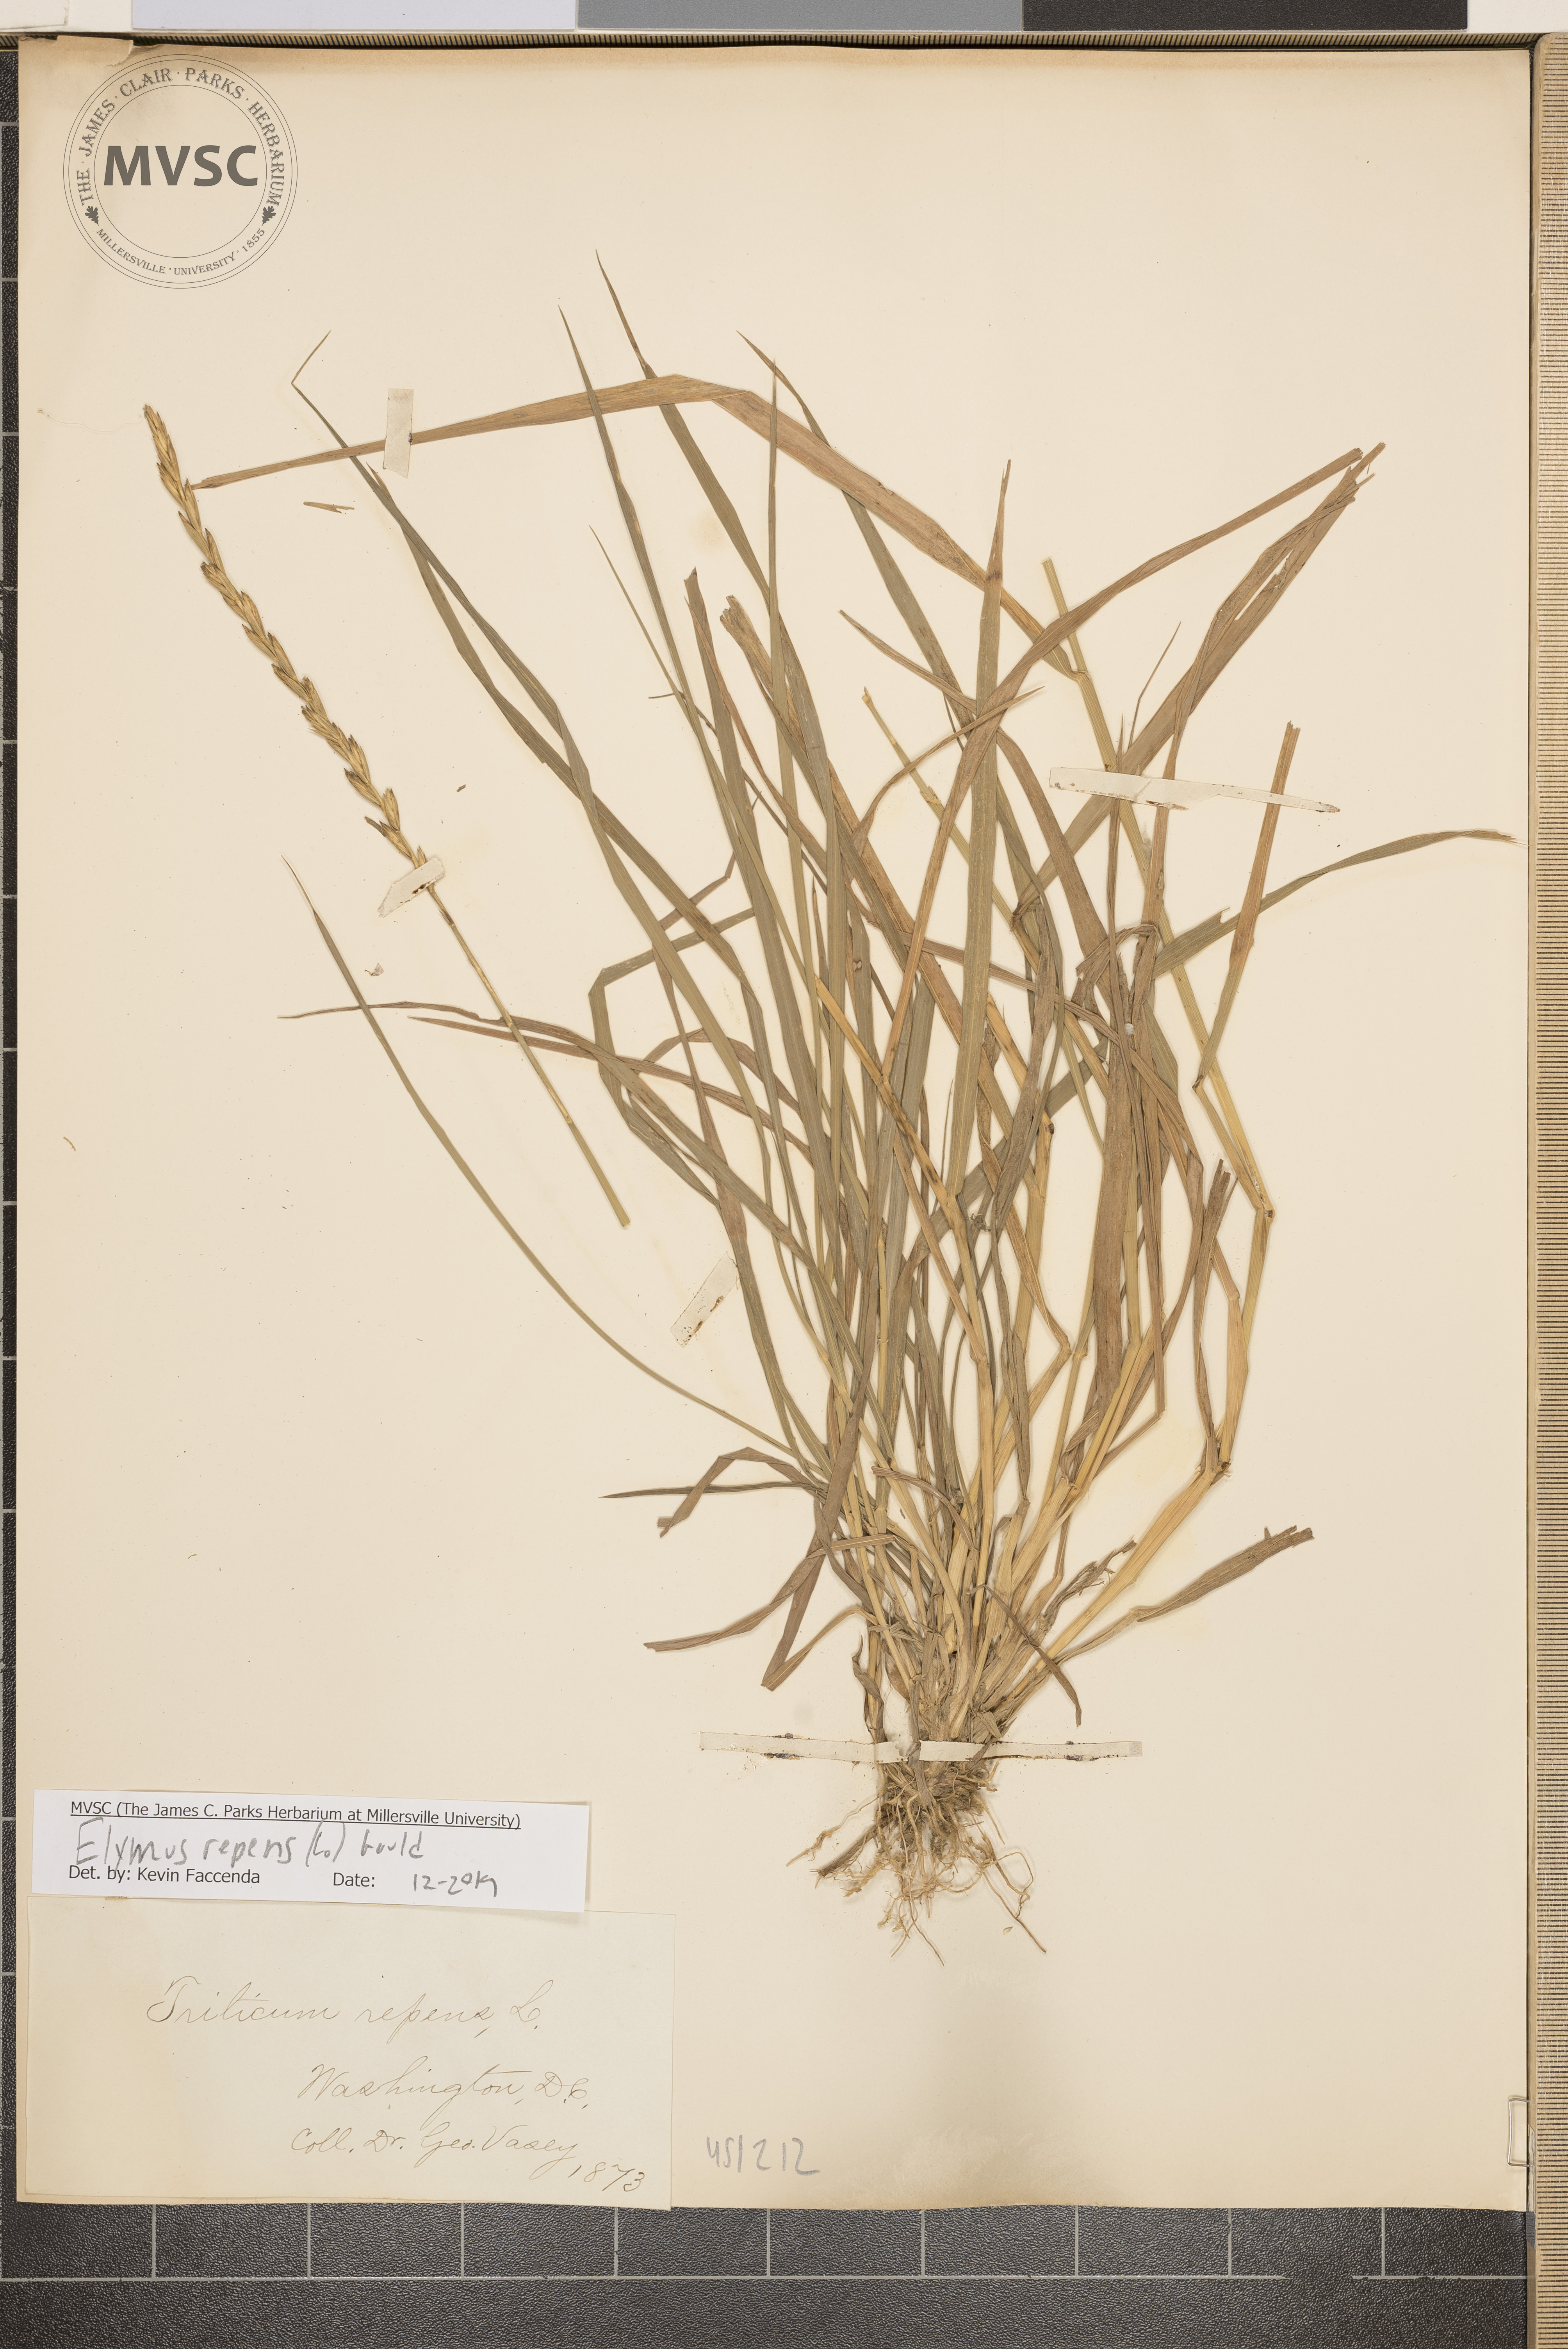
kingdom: Plantae
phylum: Tracheophyta
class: Liliopsida
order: Poales
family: Poaceae
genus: Elymus
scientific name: Elymus repens
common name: Quackgrass
